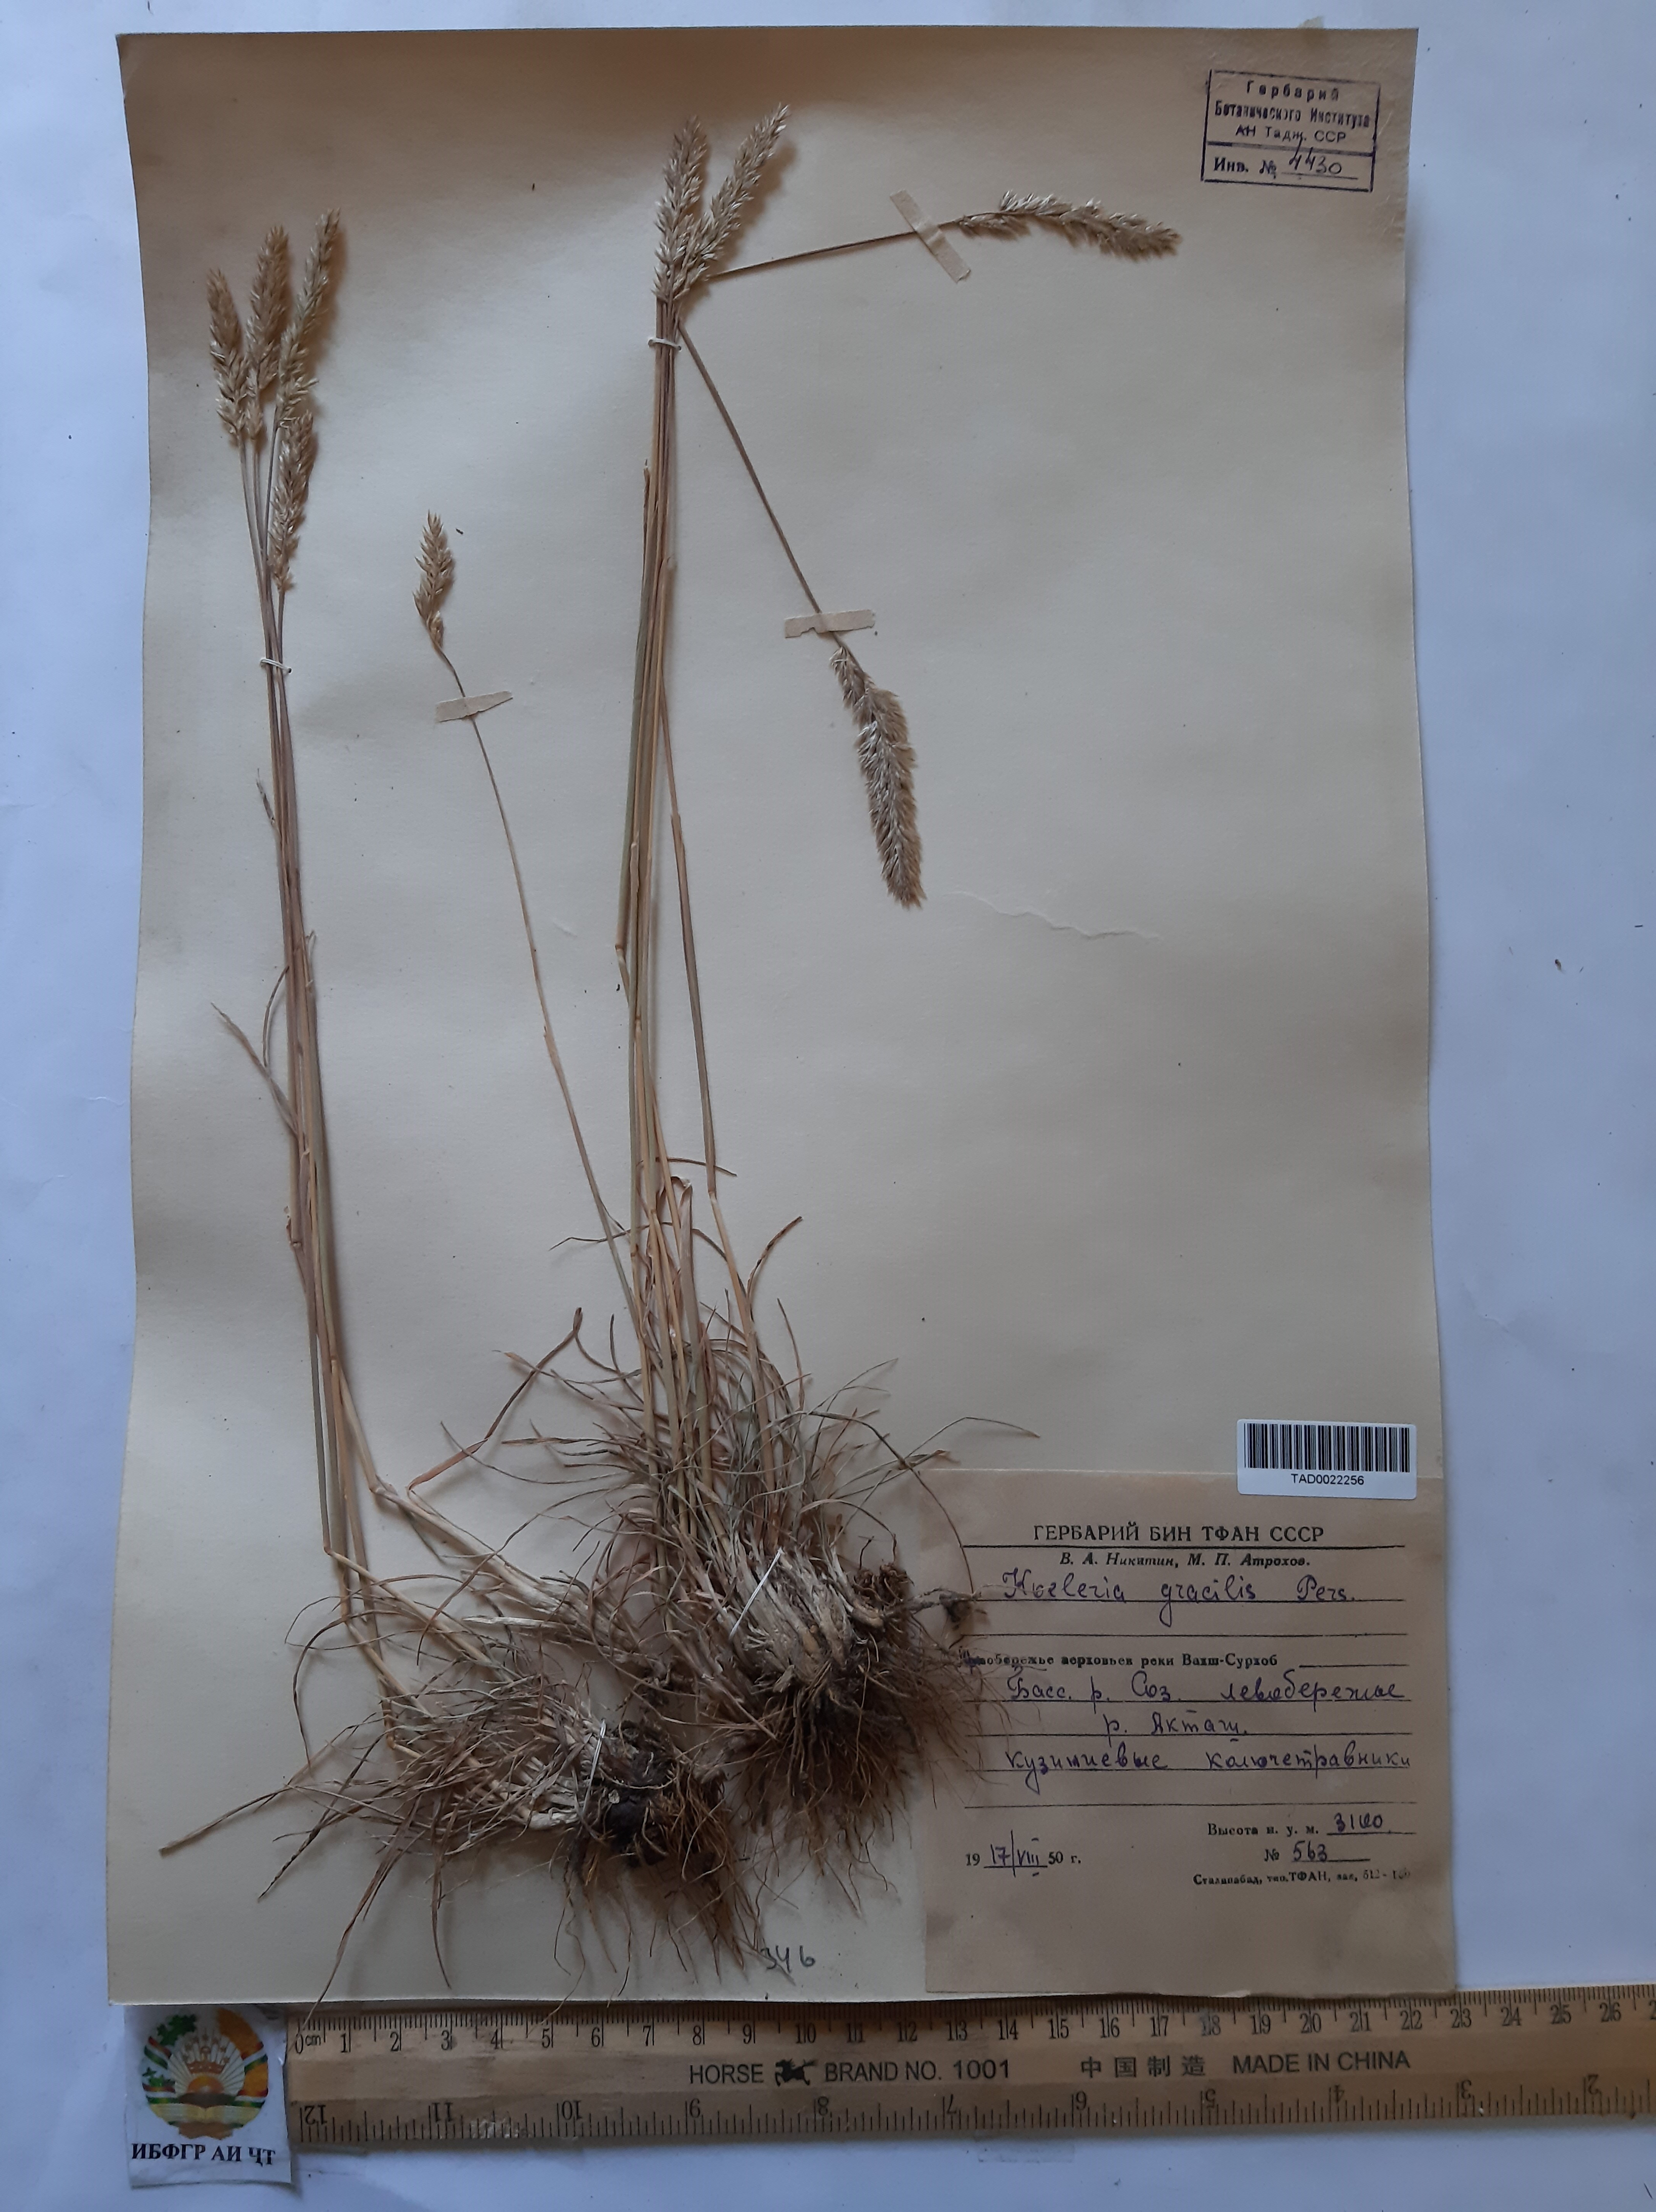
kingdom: Plantae
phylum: Tracheophyta
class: Liliopsida
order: Poales
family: Poaceae
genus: Koeleria
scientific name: Koeleria macrantha
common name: Crested hair-grass
